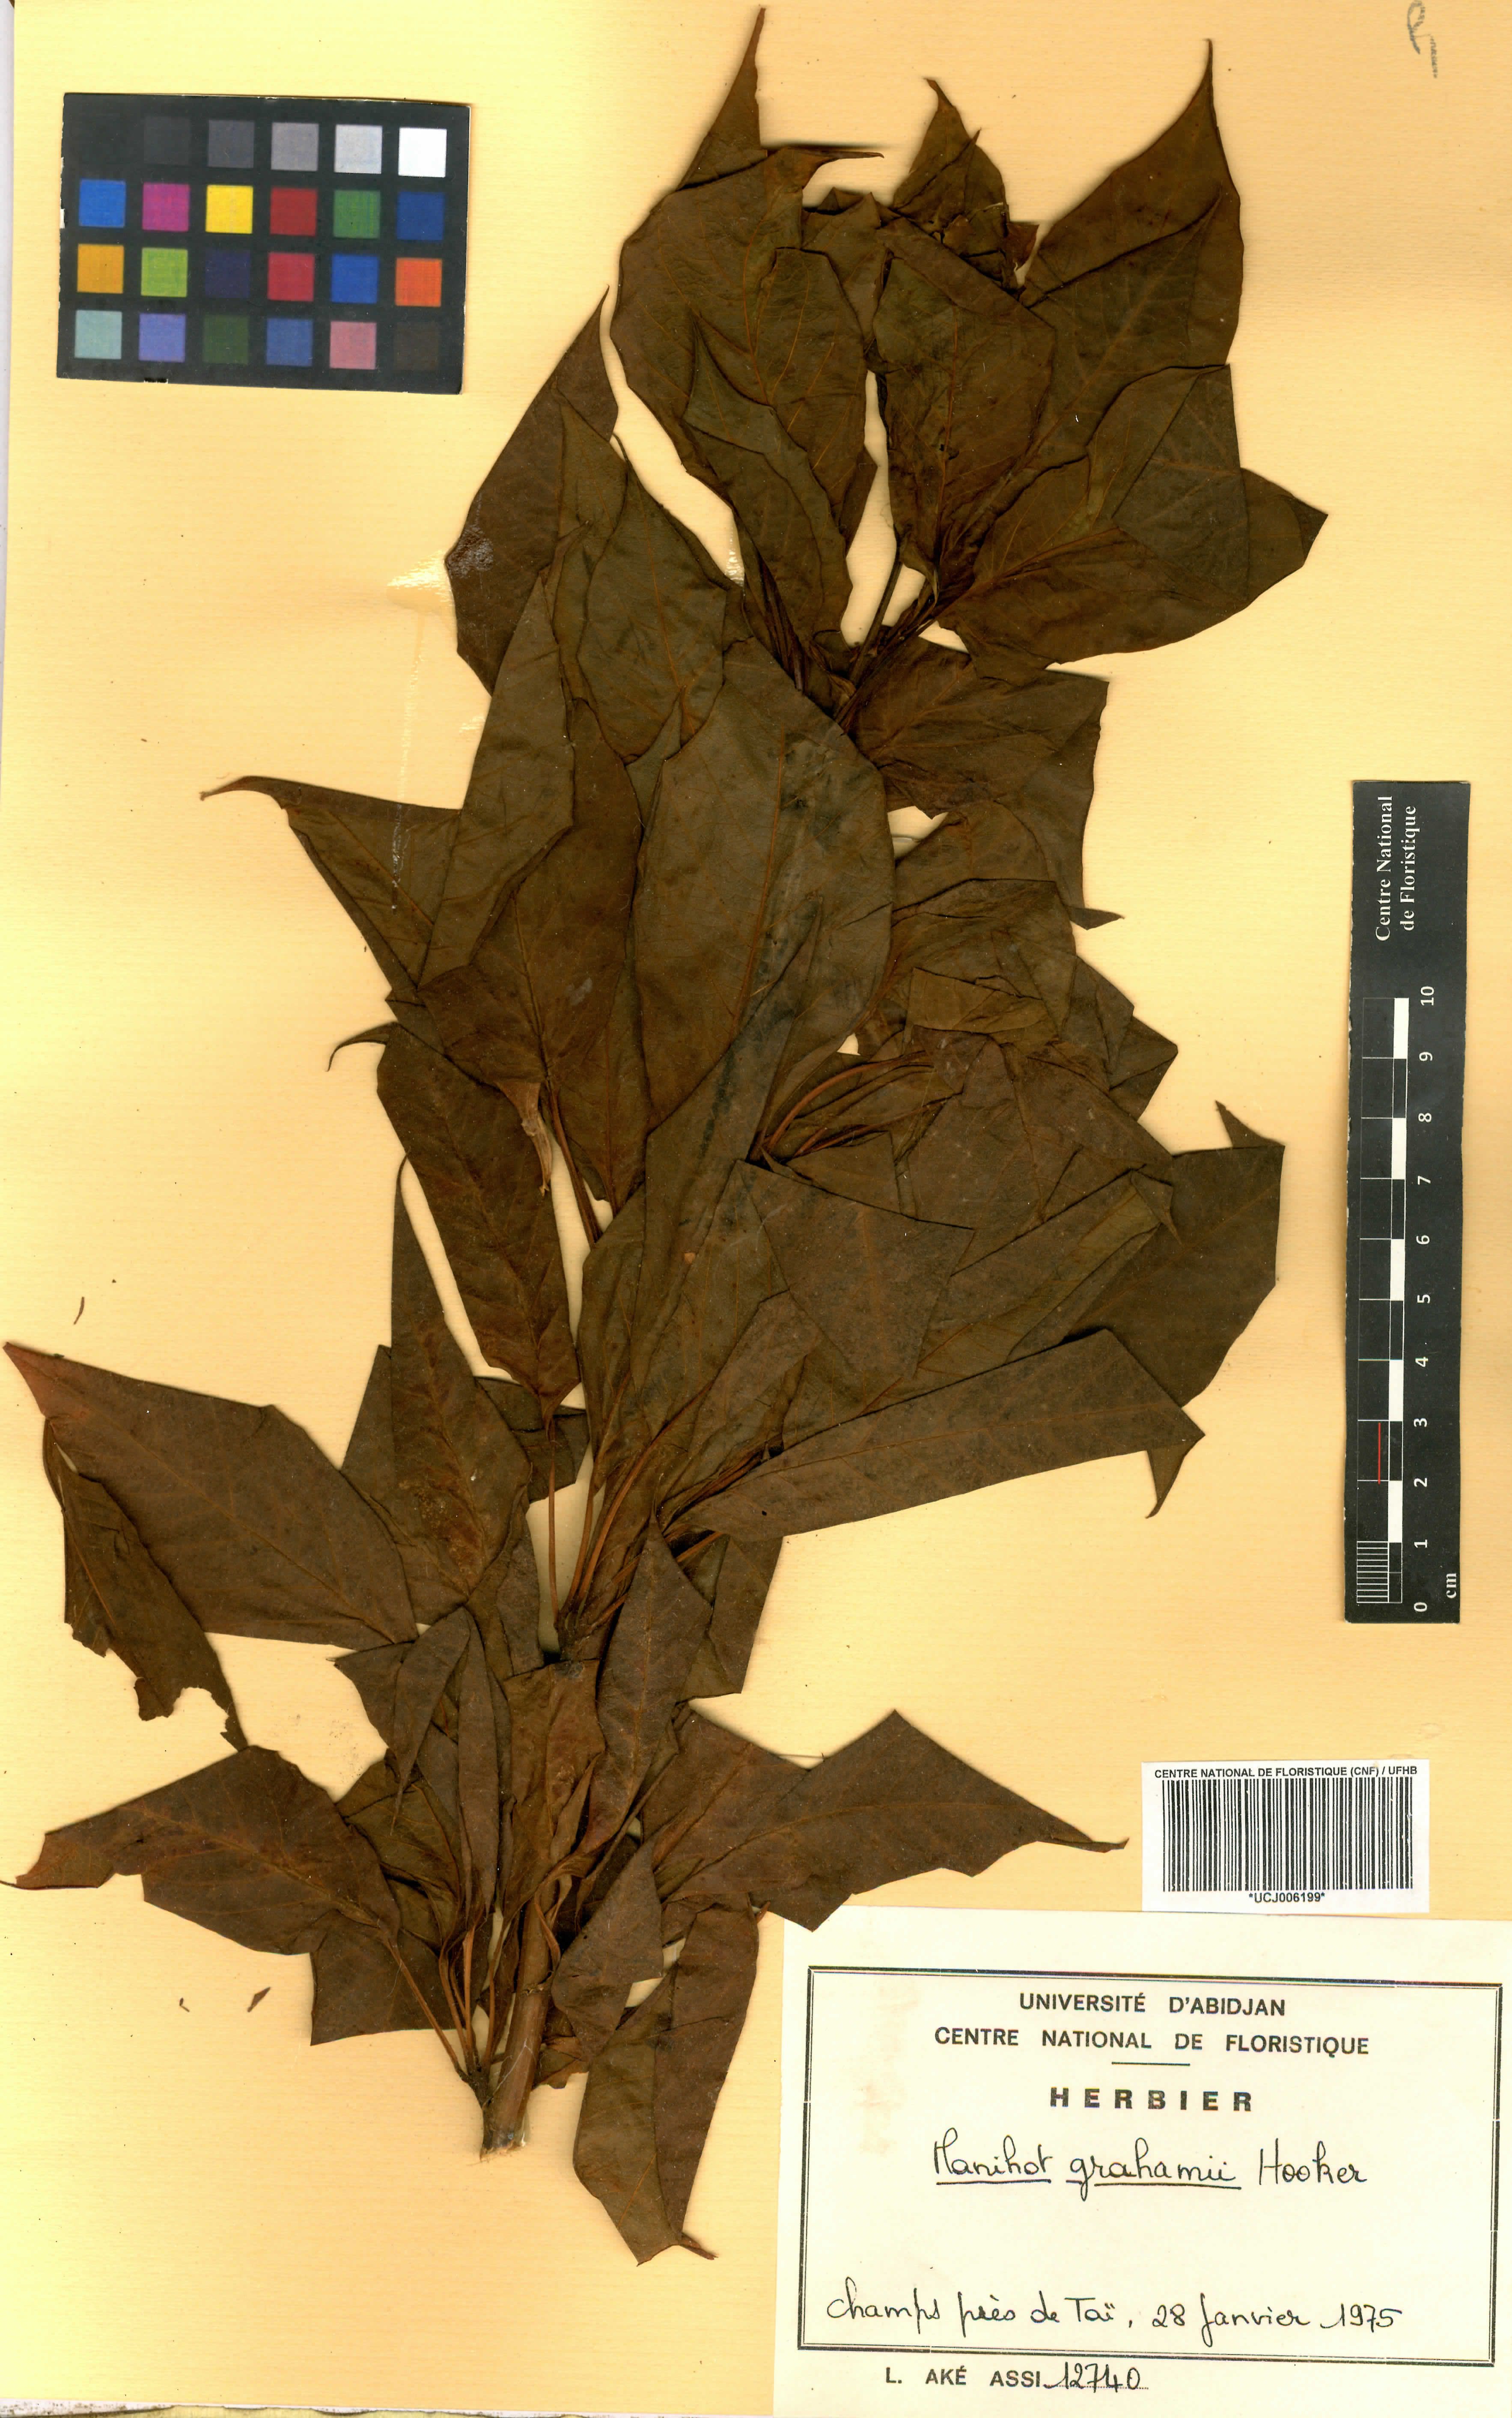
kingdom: Plantae
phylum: Tracheophyta
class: Magnoliopsida
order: Malpighiales
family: Euphorbiaceae
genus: Manihot
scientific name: Manihot grahamii
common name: Graham's manihot
